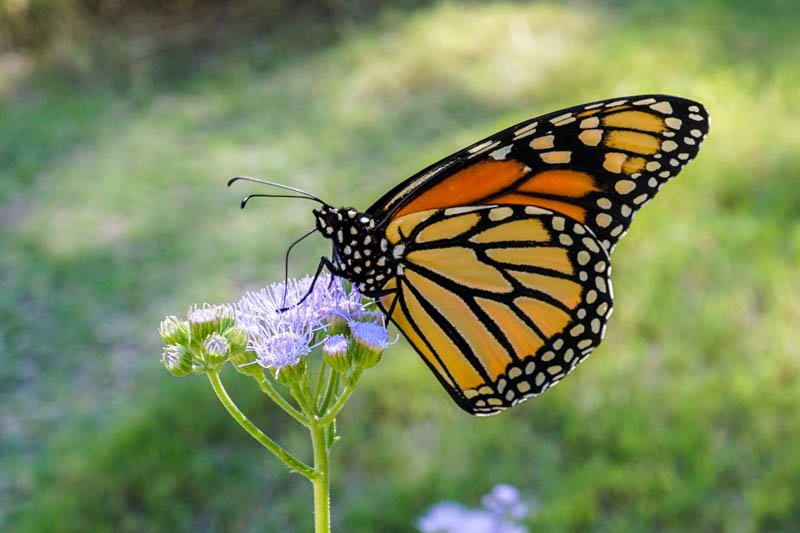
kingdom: Animalia
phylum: Arthropoda
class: Insecta
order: Lepidoptera
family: Nymphalidae
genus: Danaus
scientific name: Danaus plexippus
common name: Monarch
